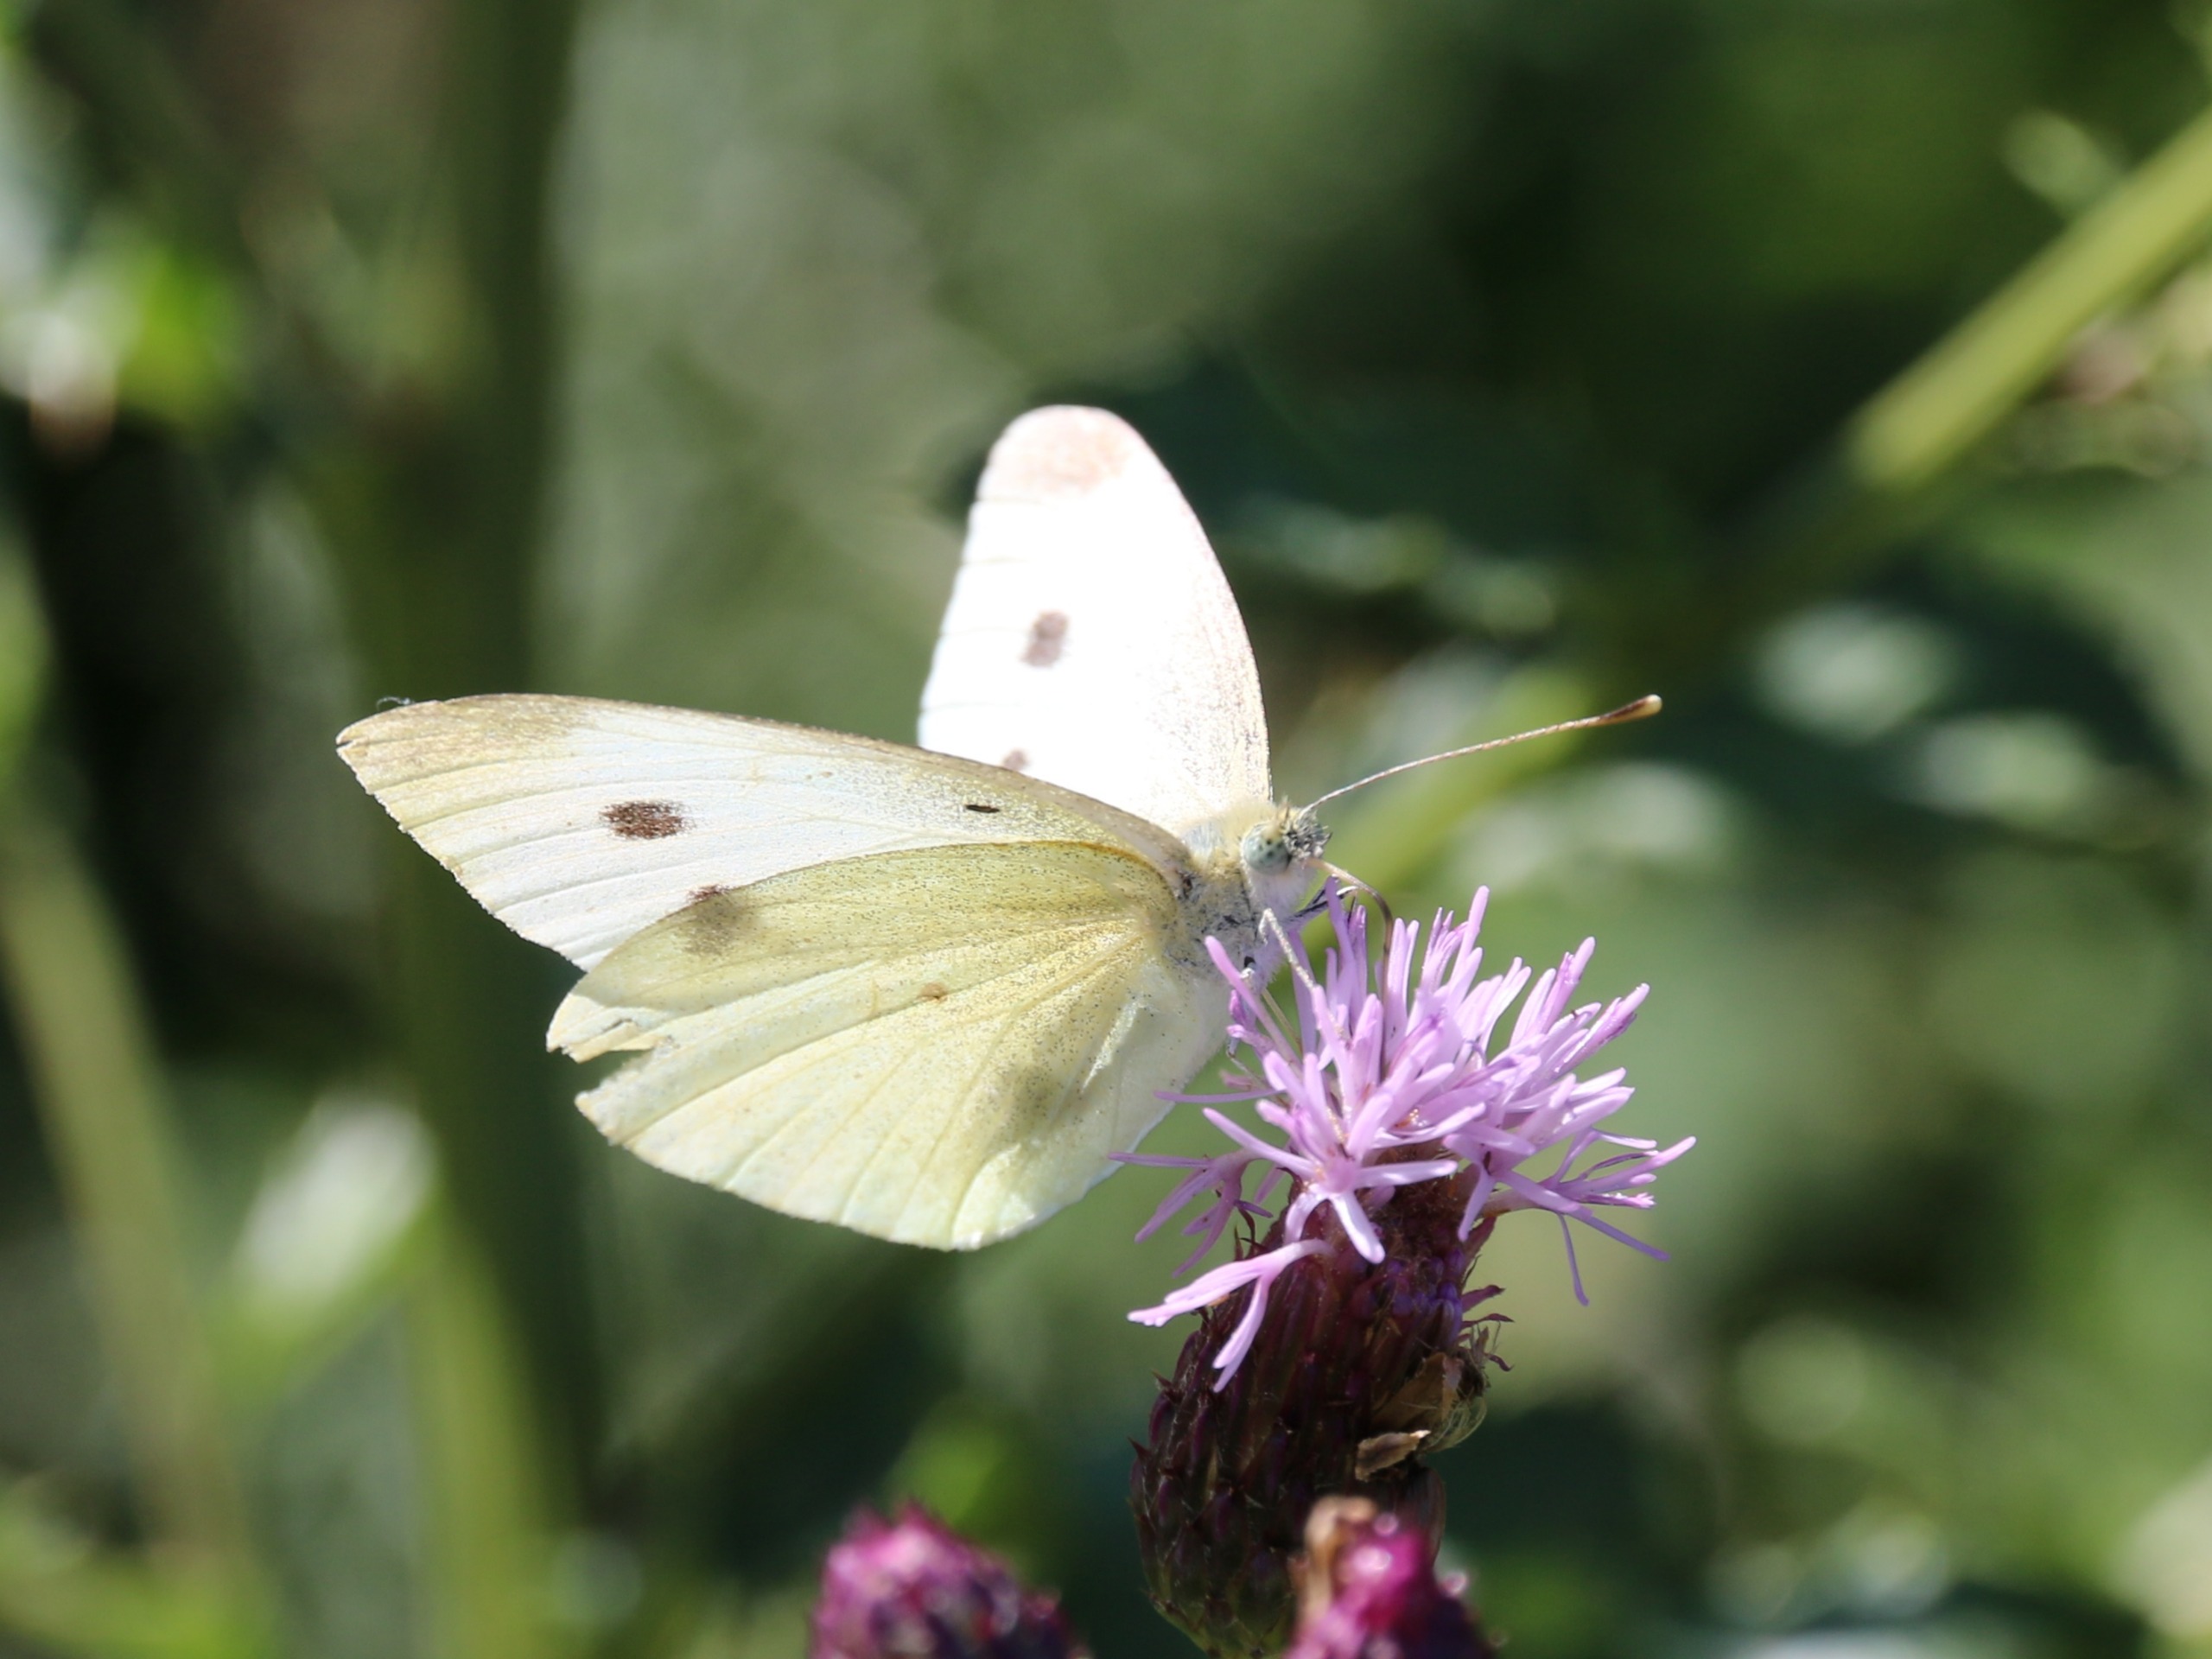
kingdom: Animalia
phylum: Arthropoda
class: Insecta
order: Lepidoptera
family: Pieridae
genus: Pieris
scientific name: Pieris rapae
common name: Lille kålsommerfugl
